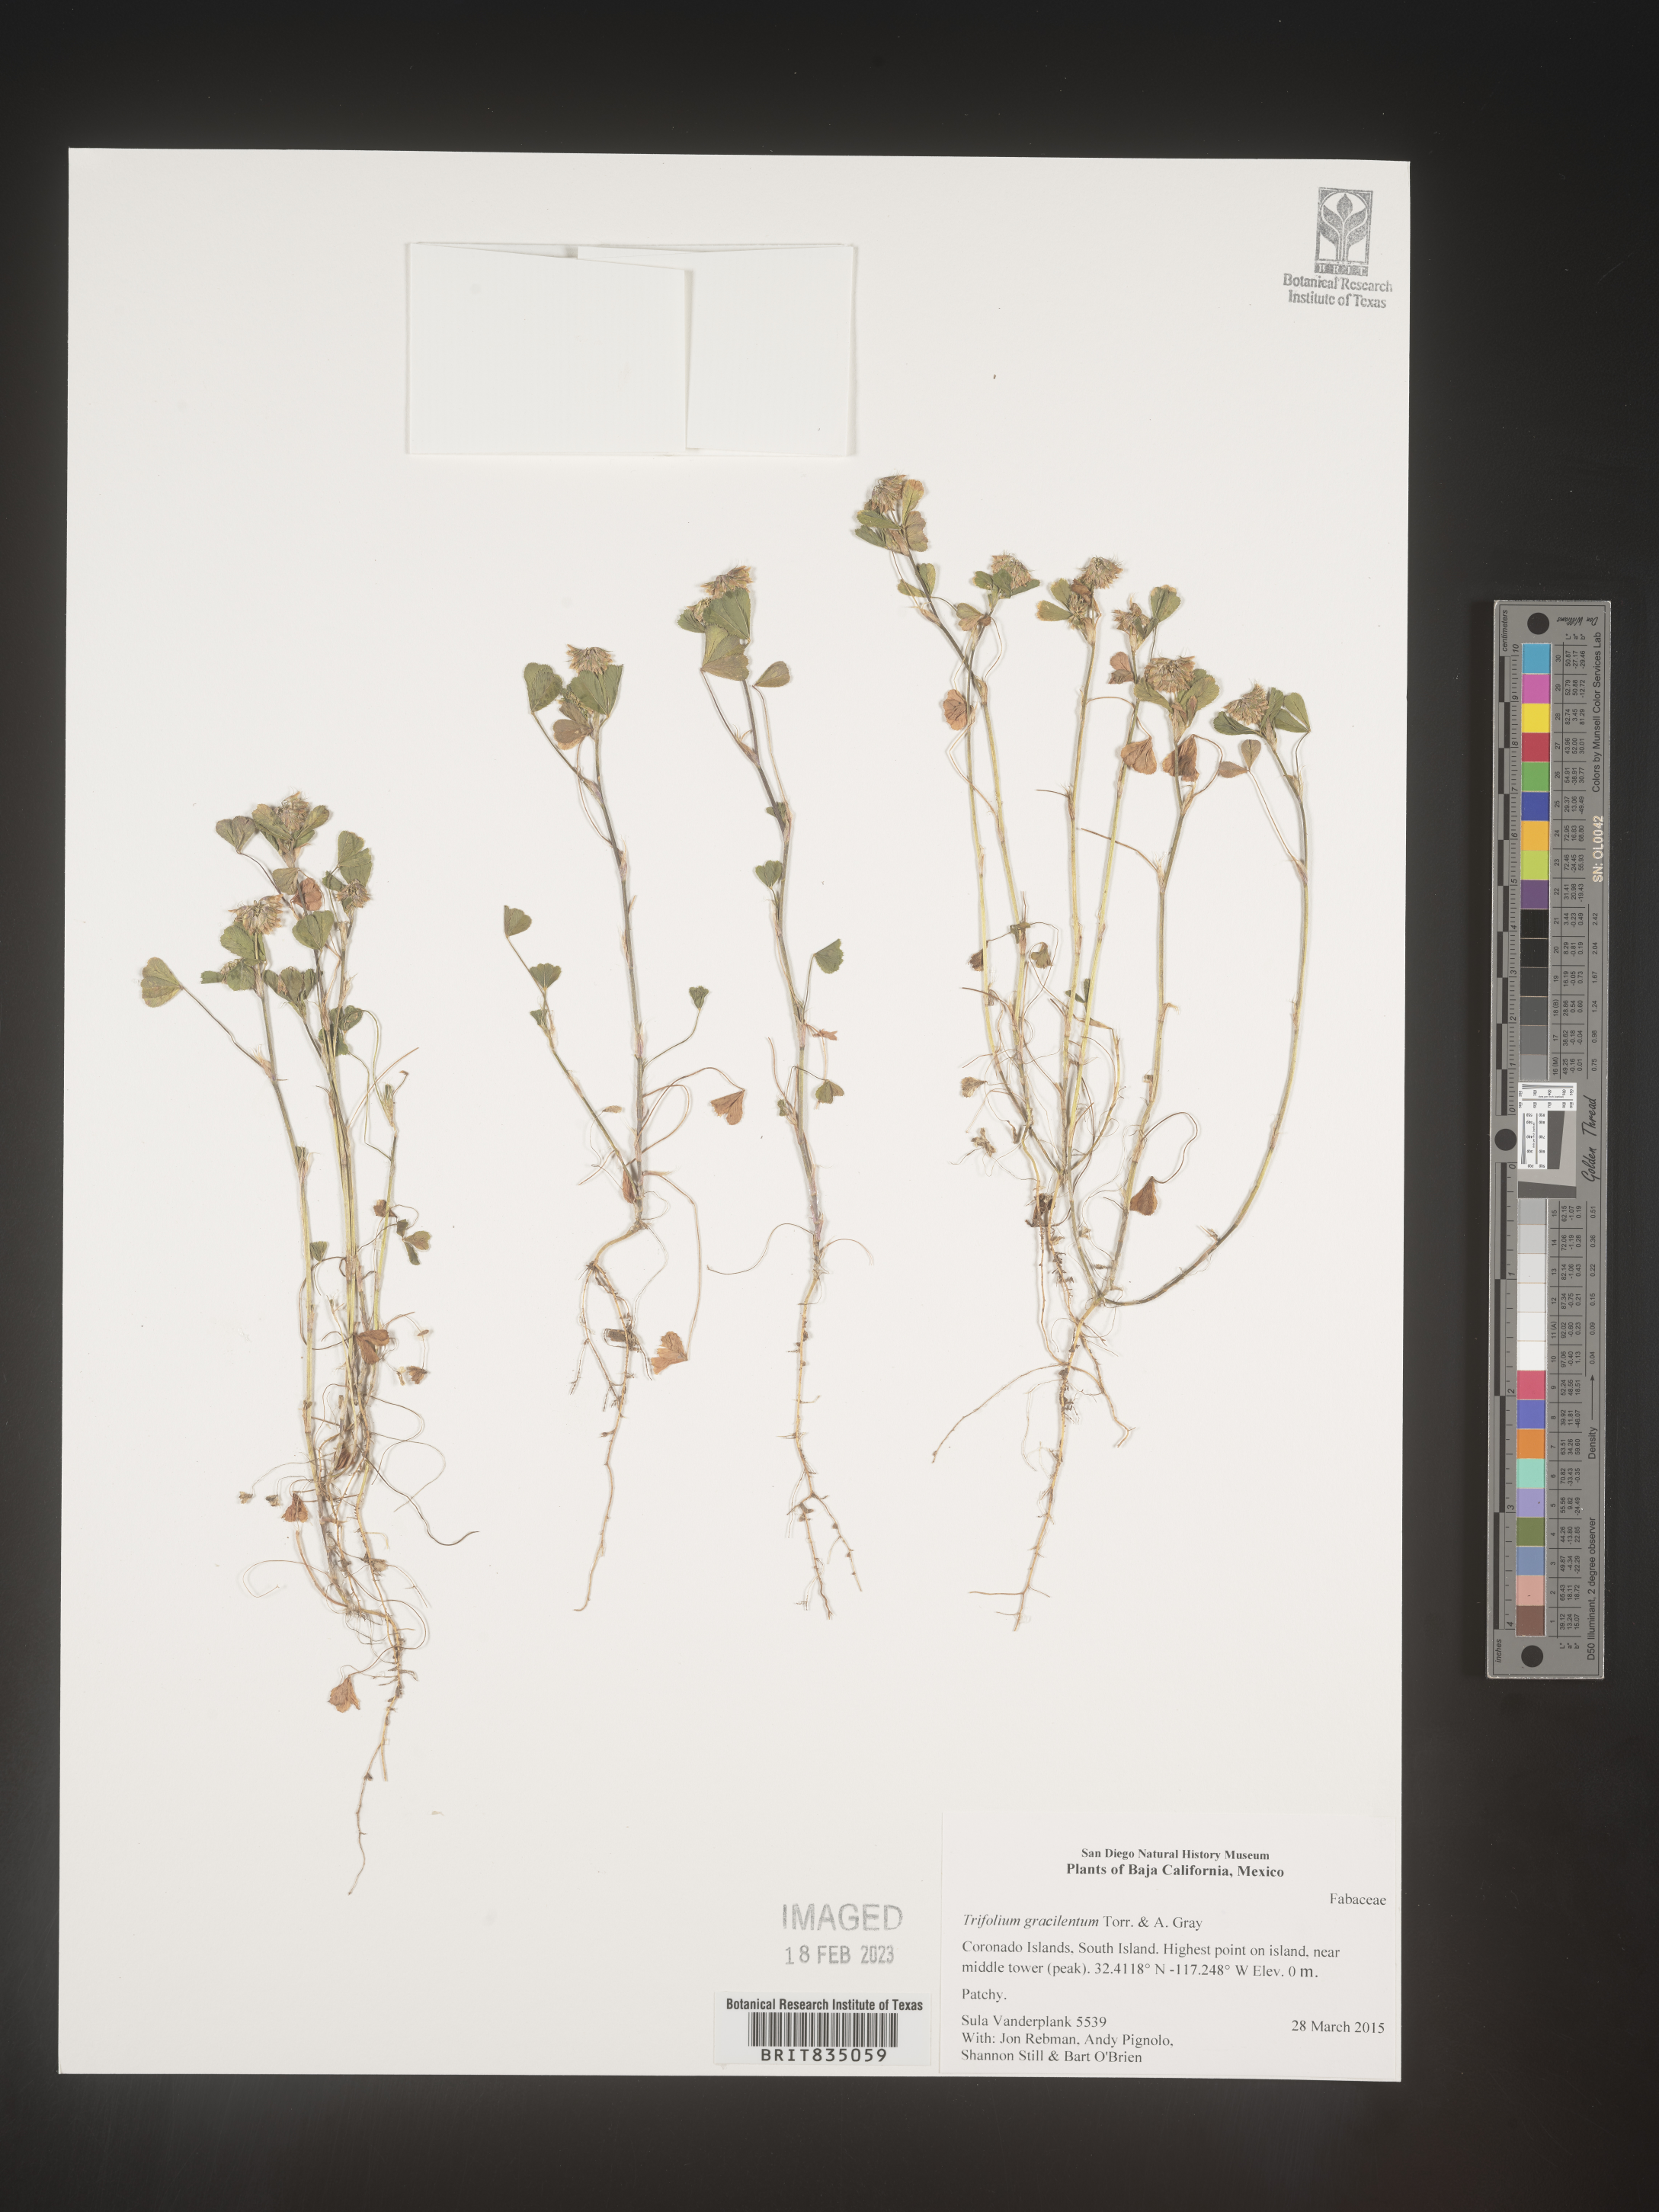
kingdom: Plantae
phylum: Tracheophyta
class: Magnoliopsida
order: Fabales
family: Fabaceae
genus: Trifolium
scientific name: Trifolium
